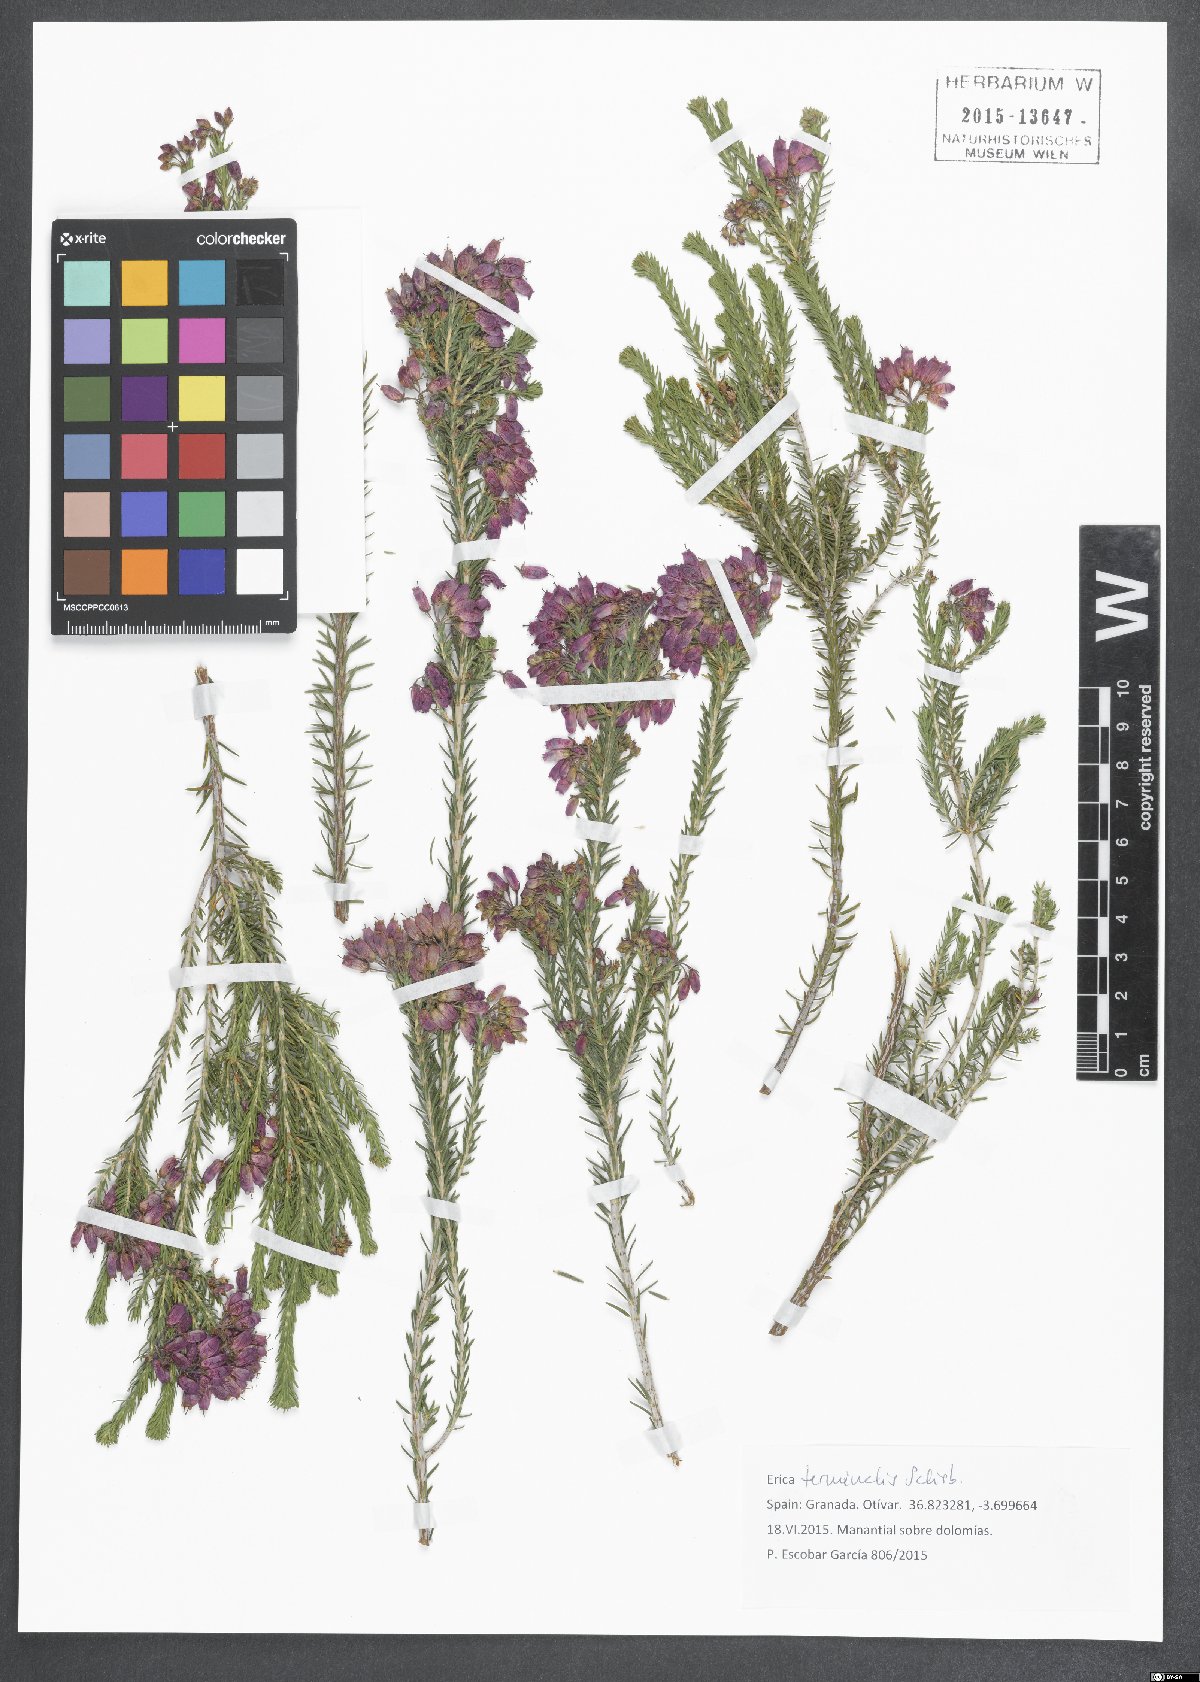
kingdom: Plantae
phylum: Tracheophyta
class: Magnoliopsida
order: Ericales
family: Ericaceae
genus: Erica
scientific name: Erica terminalis
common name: Corsican heath
